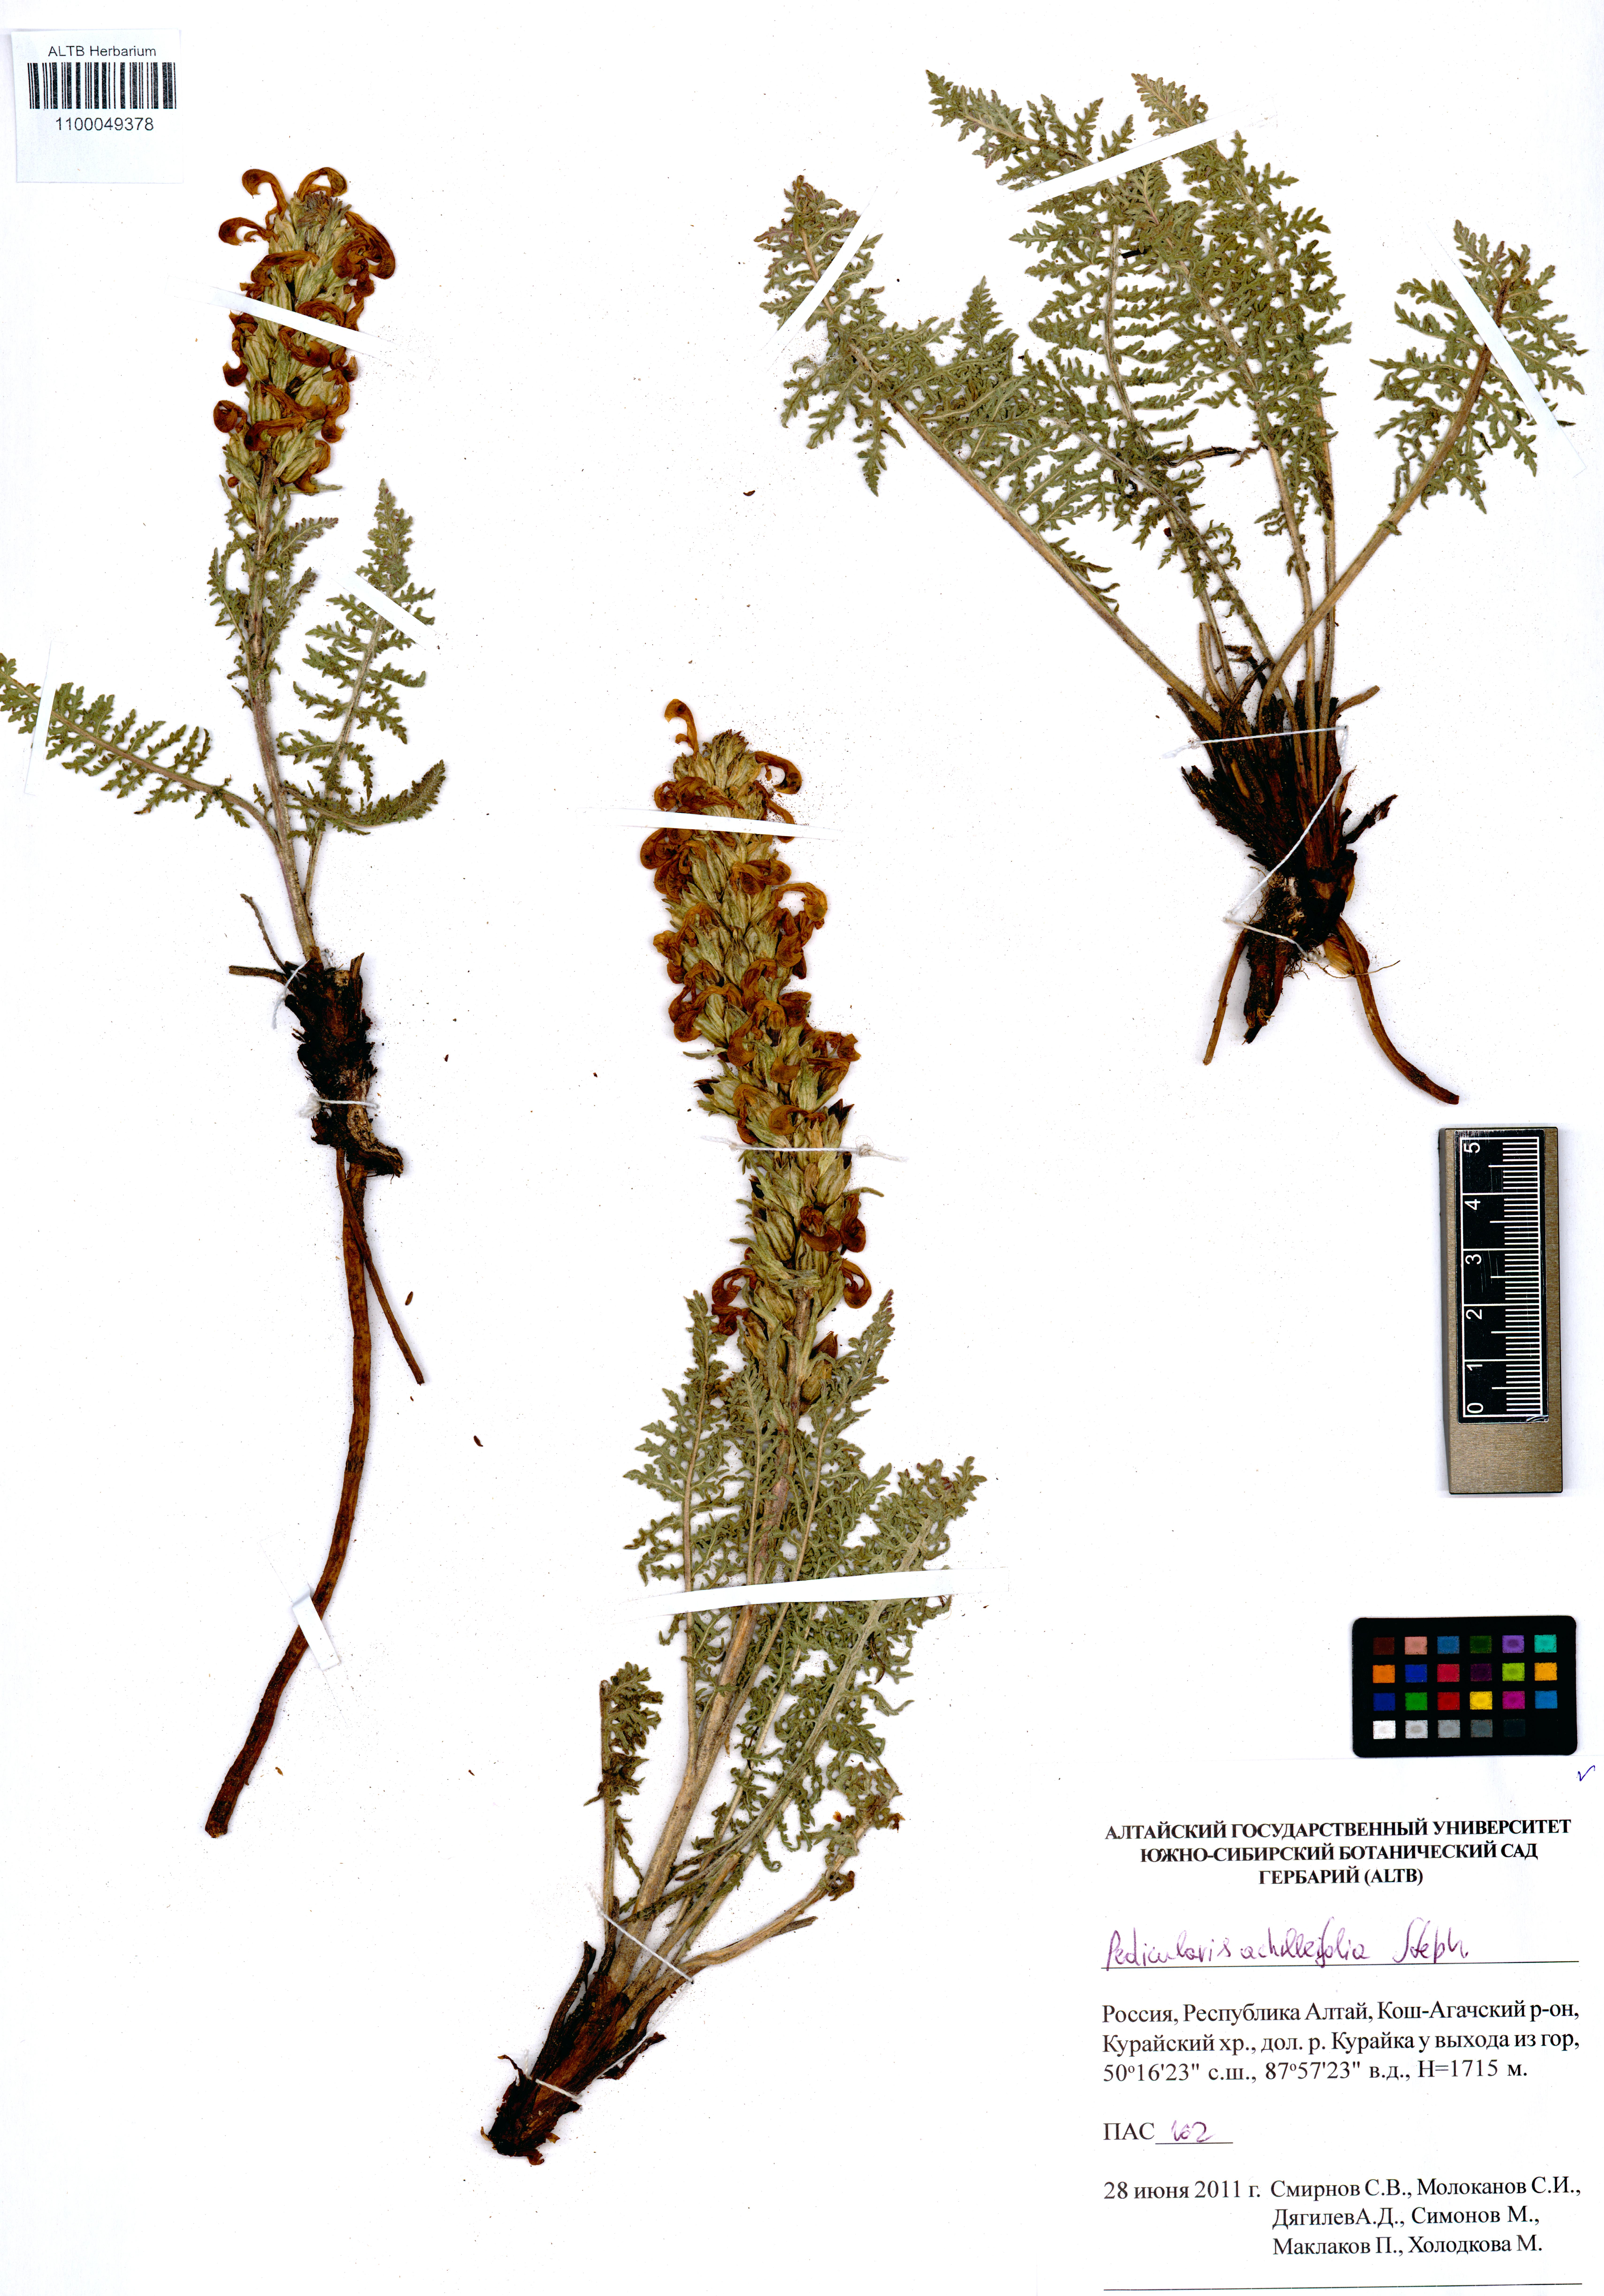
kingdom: Plantae
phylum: Tracheophyta
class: Magnoliopsida
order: Lamiales
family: Orobanchaceae
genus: Pedicularis
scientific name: Pedicularis achilleifolia
